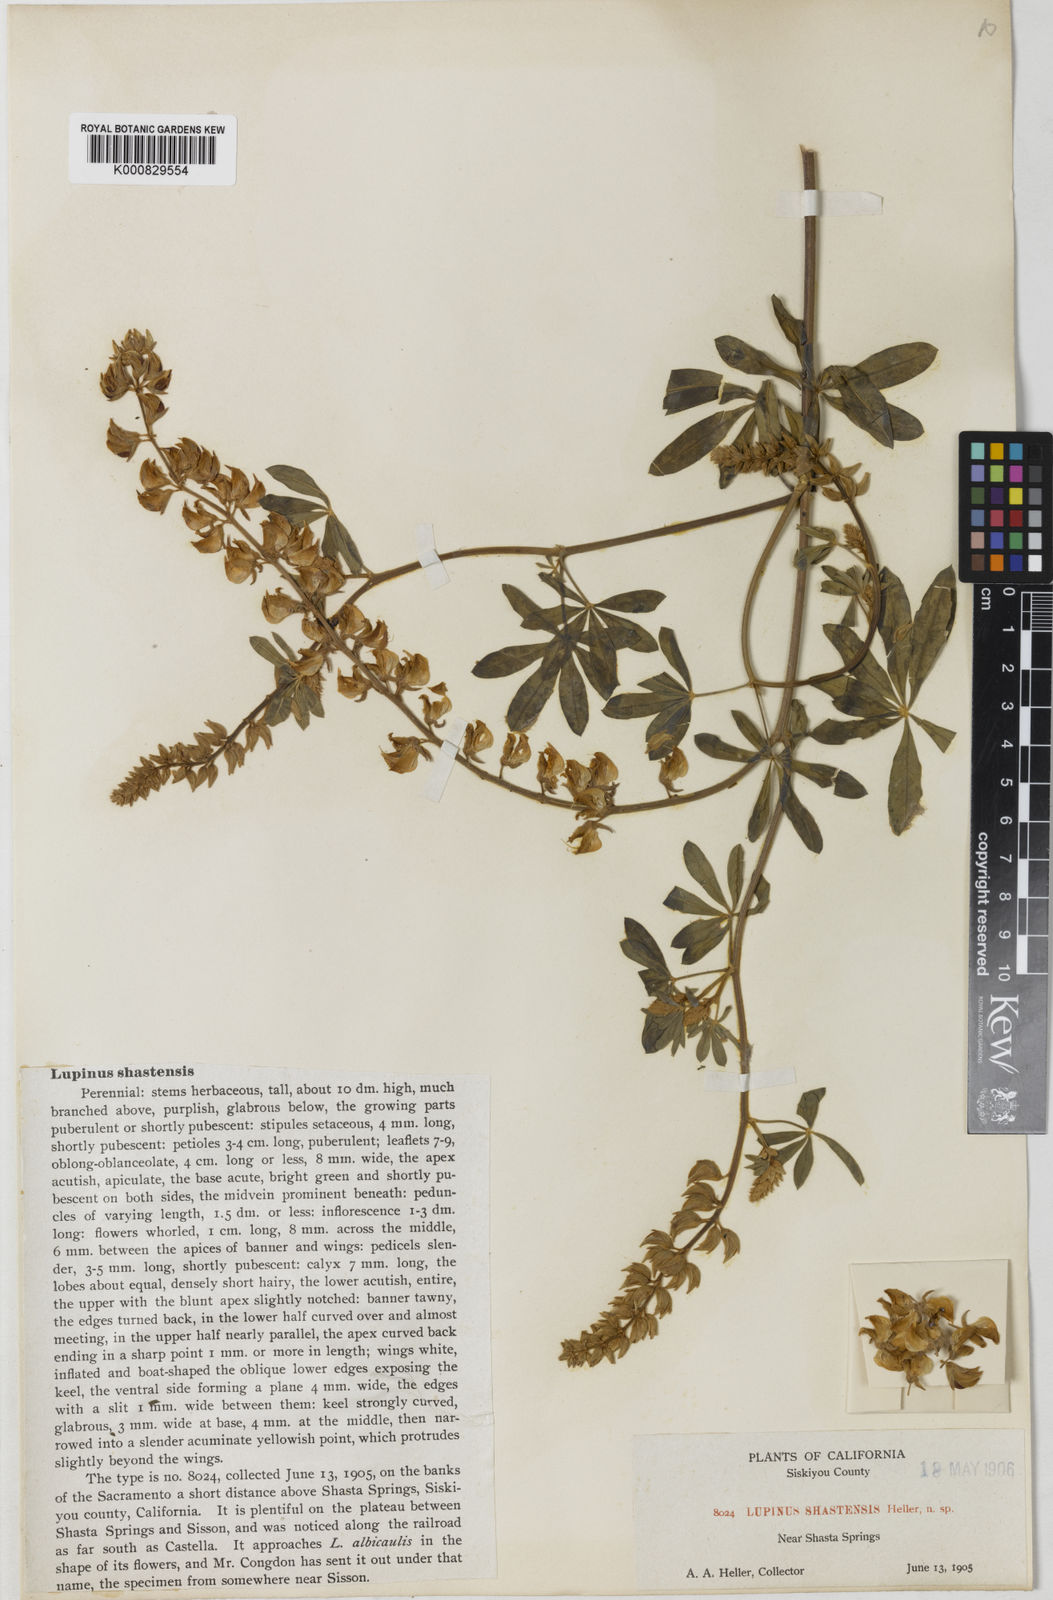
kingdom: Plantae
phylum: Tracheophyta
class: Magnoliopsida
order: Fabales
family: Fabaceae
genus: Lupinus
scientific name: Lupinus albicaulis
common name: Pine lupine
